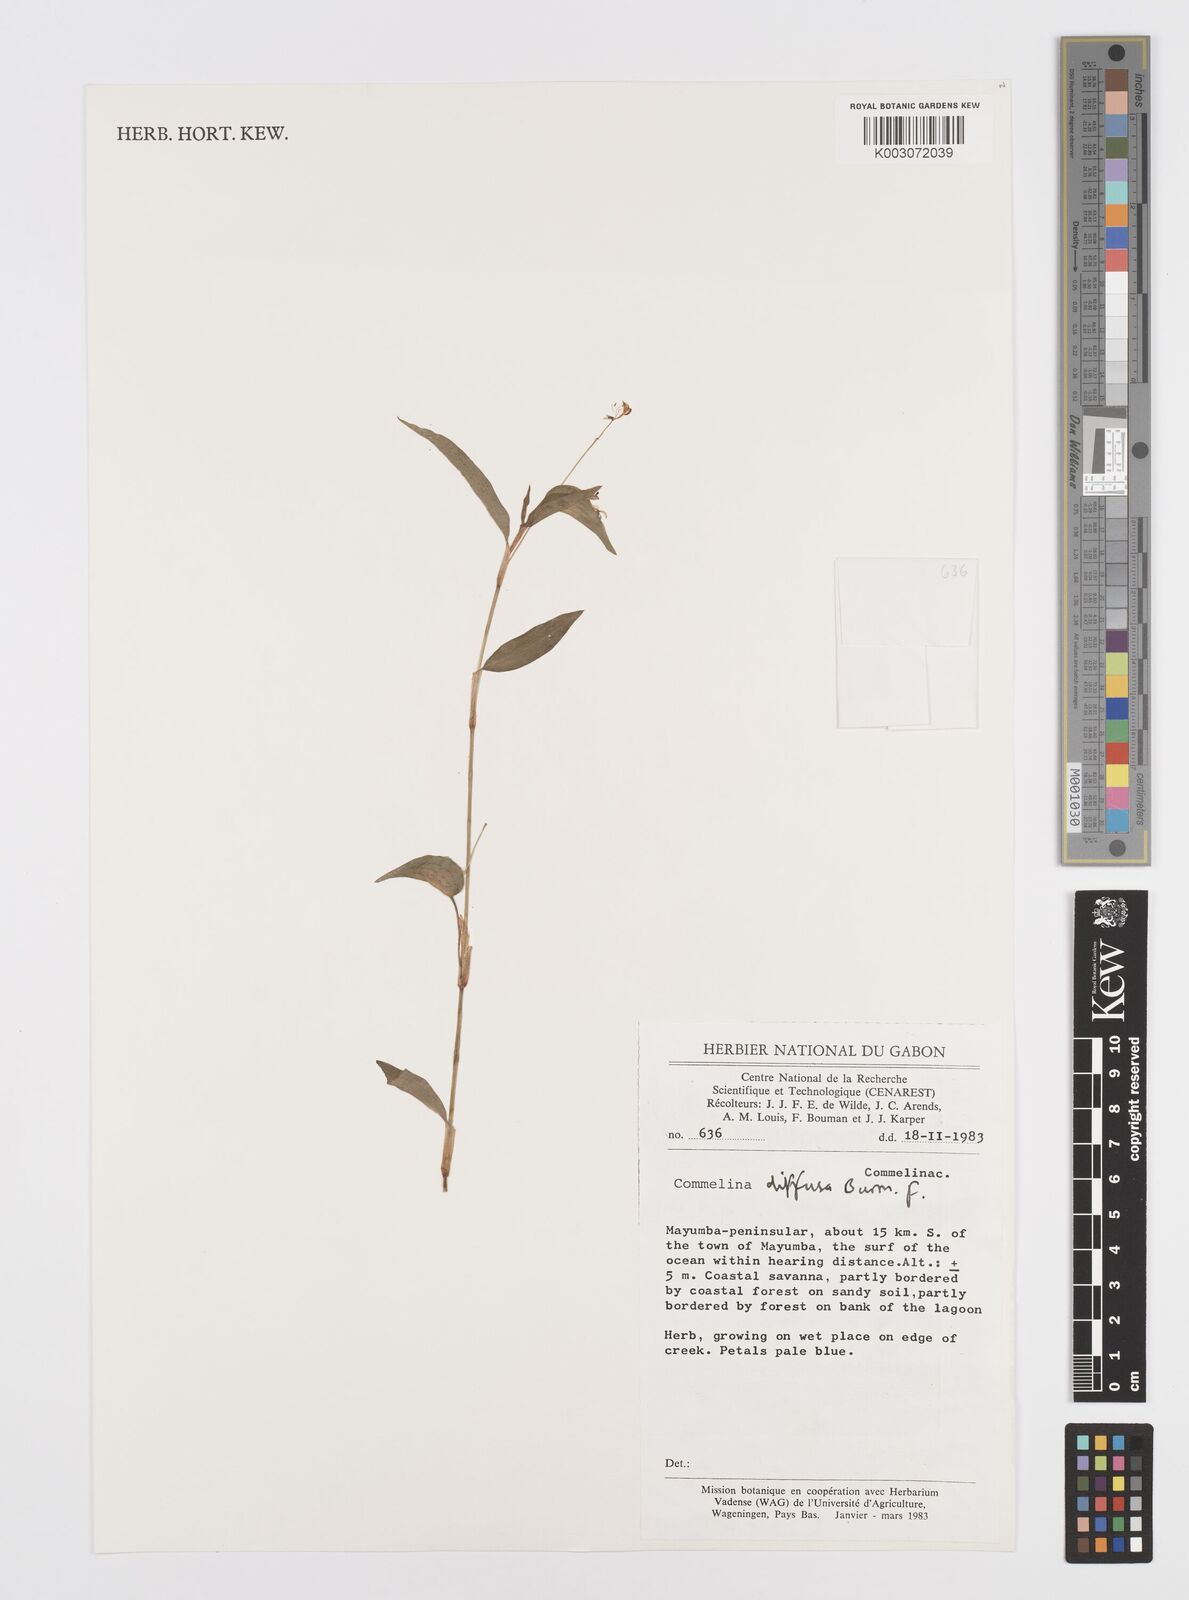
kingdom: Plantae
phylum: Tracheophyta
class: Liliopsida
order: Commelinales
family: Commelinaceae
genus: Commelina
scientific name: Commelina diffusa
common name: Climbing dayflower
